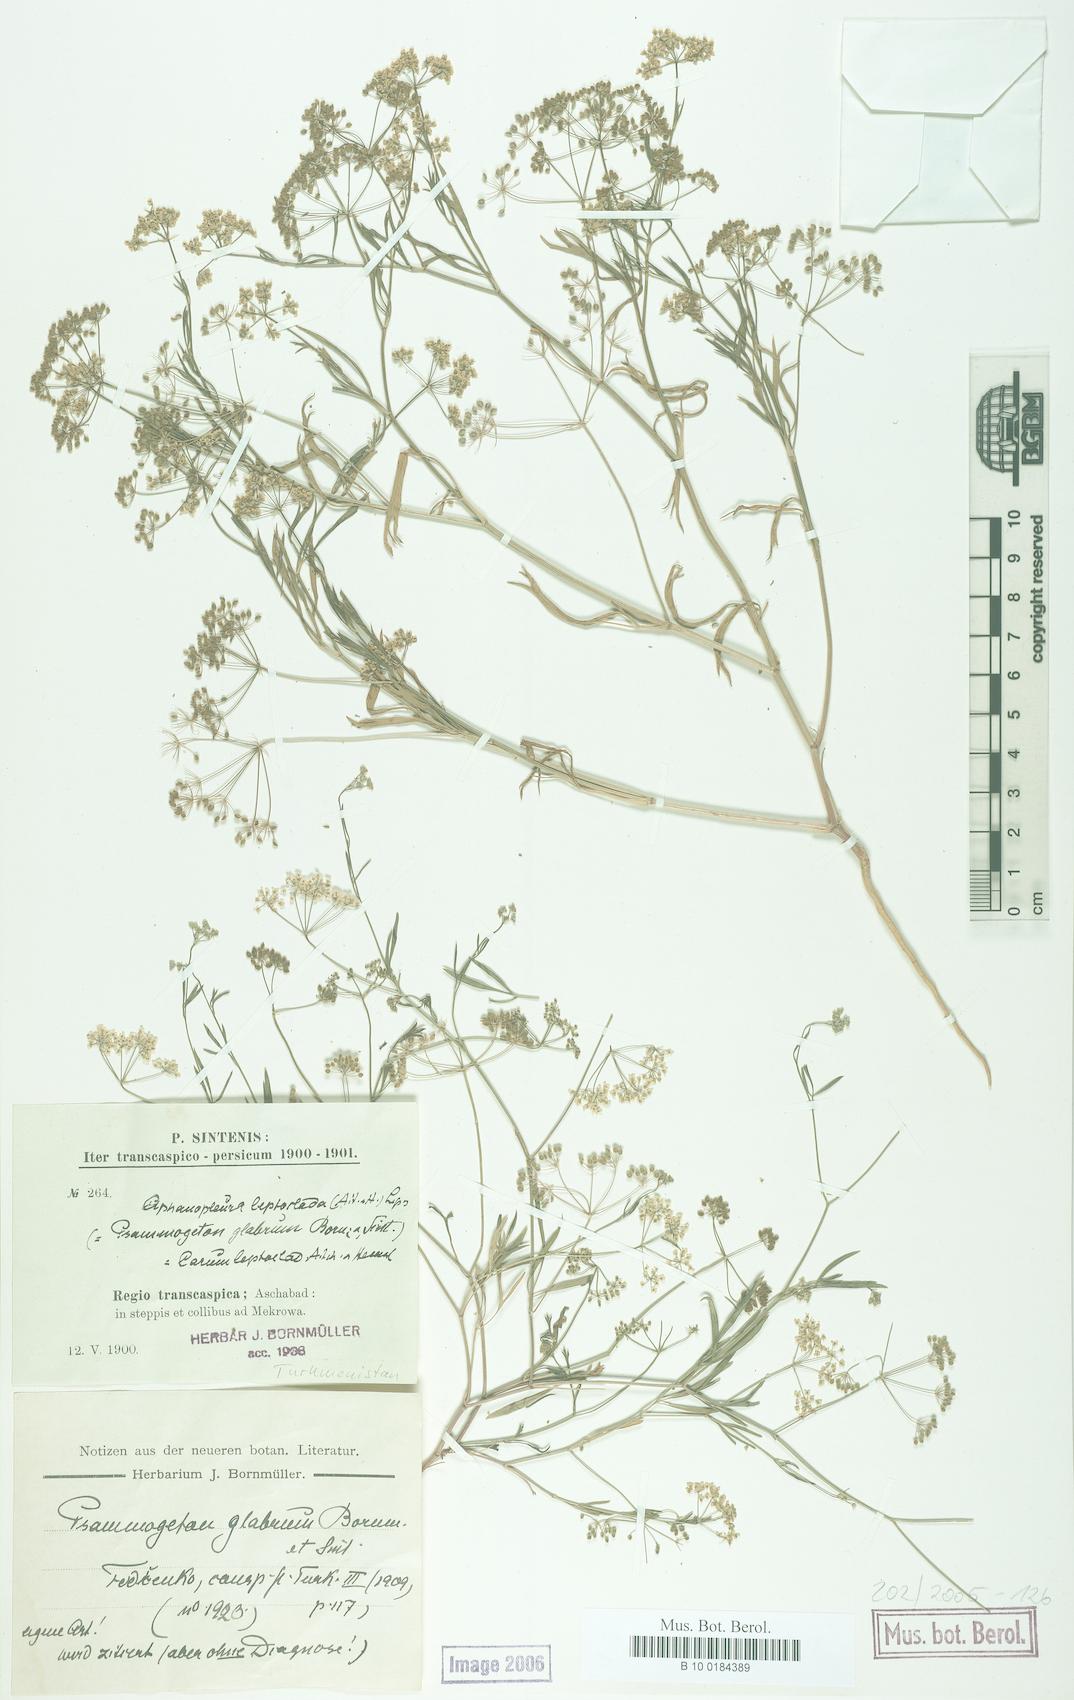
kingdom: Plantae
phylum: Tracheophyta
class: Magnoliopsida
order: Apiales
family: Apiaceae
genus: Psammogeton
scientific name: Psammogeton glabrum
